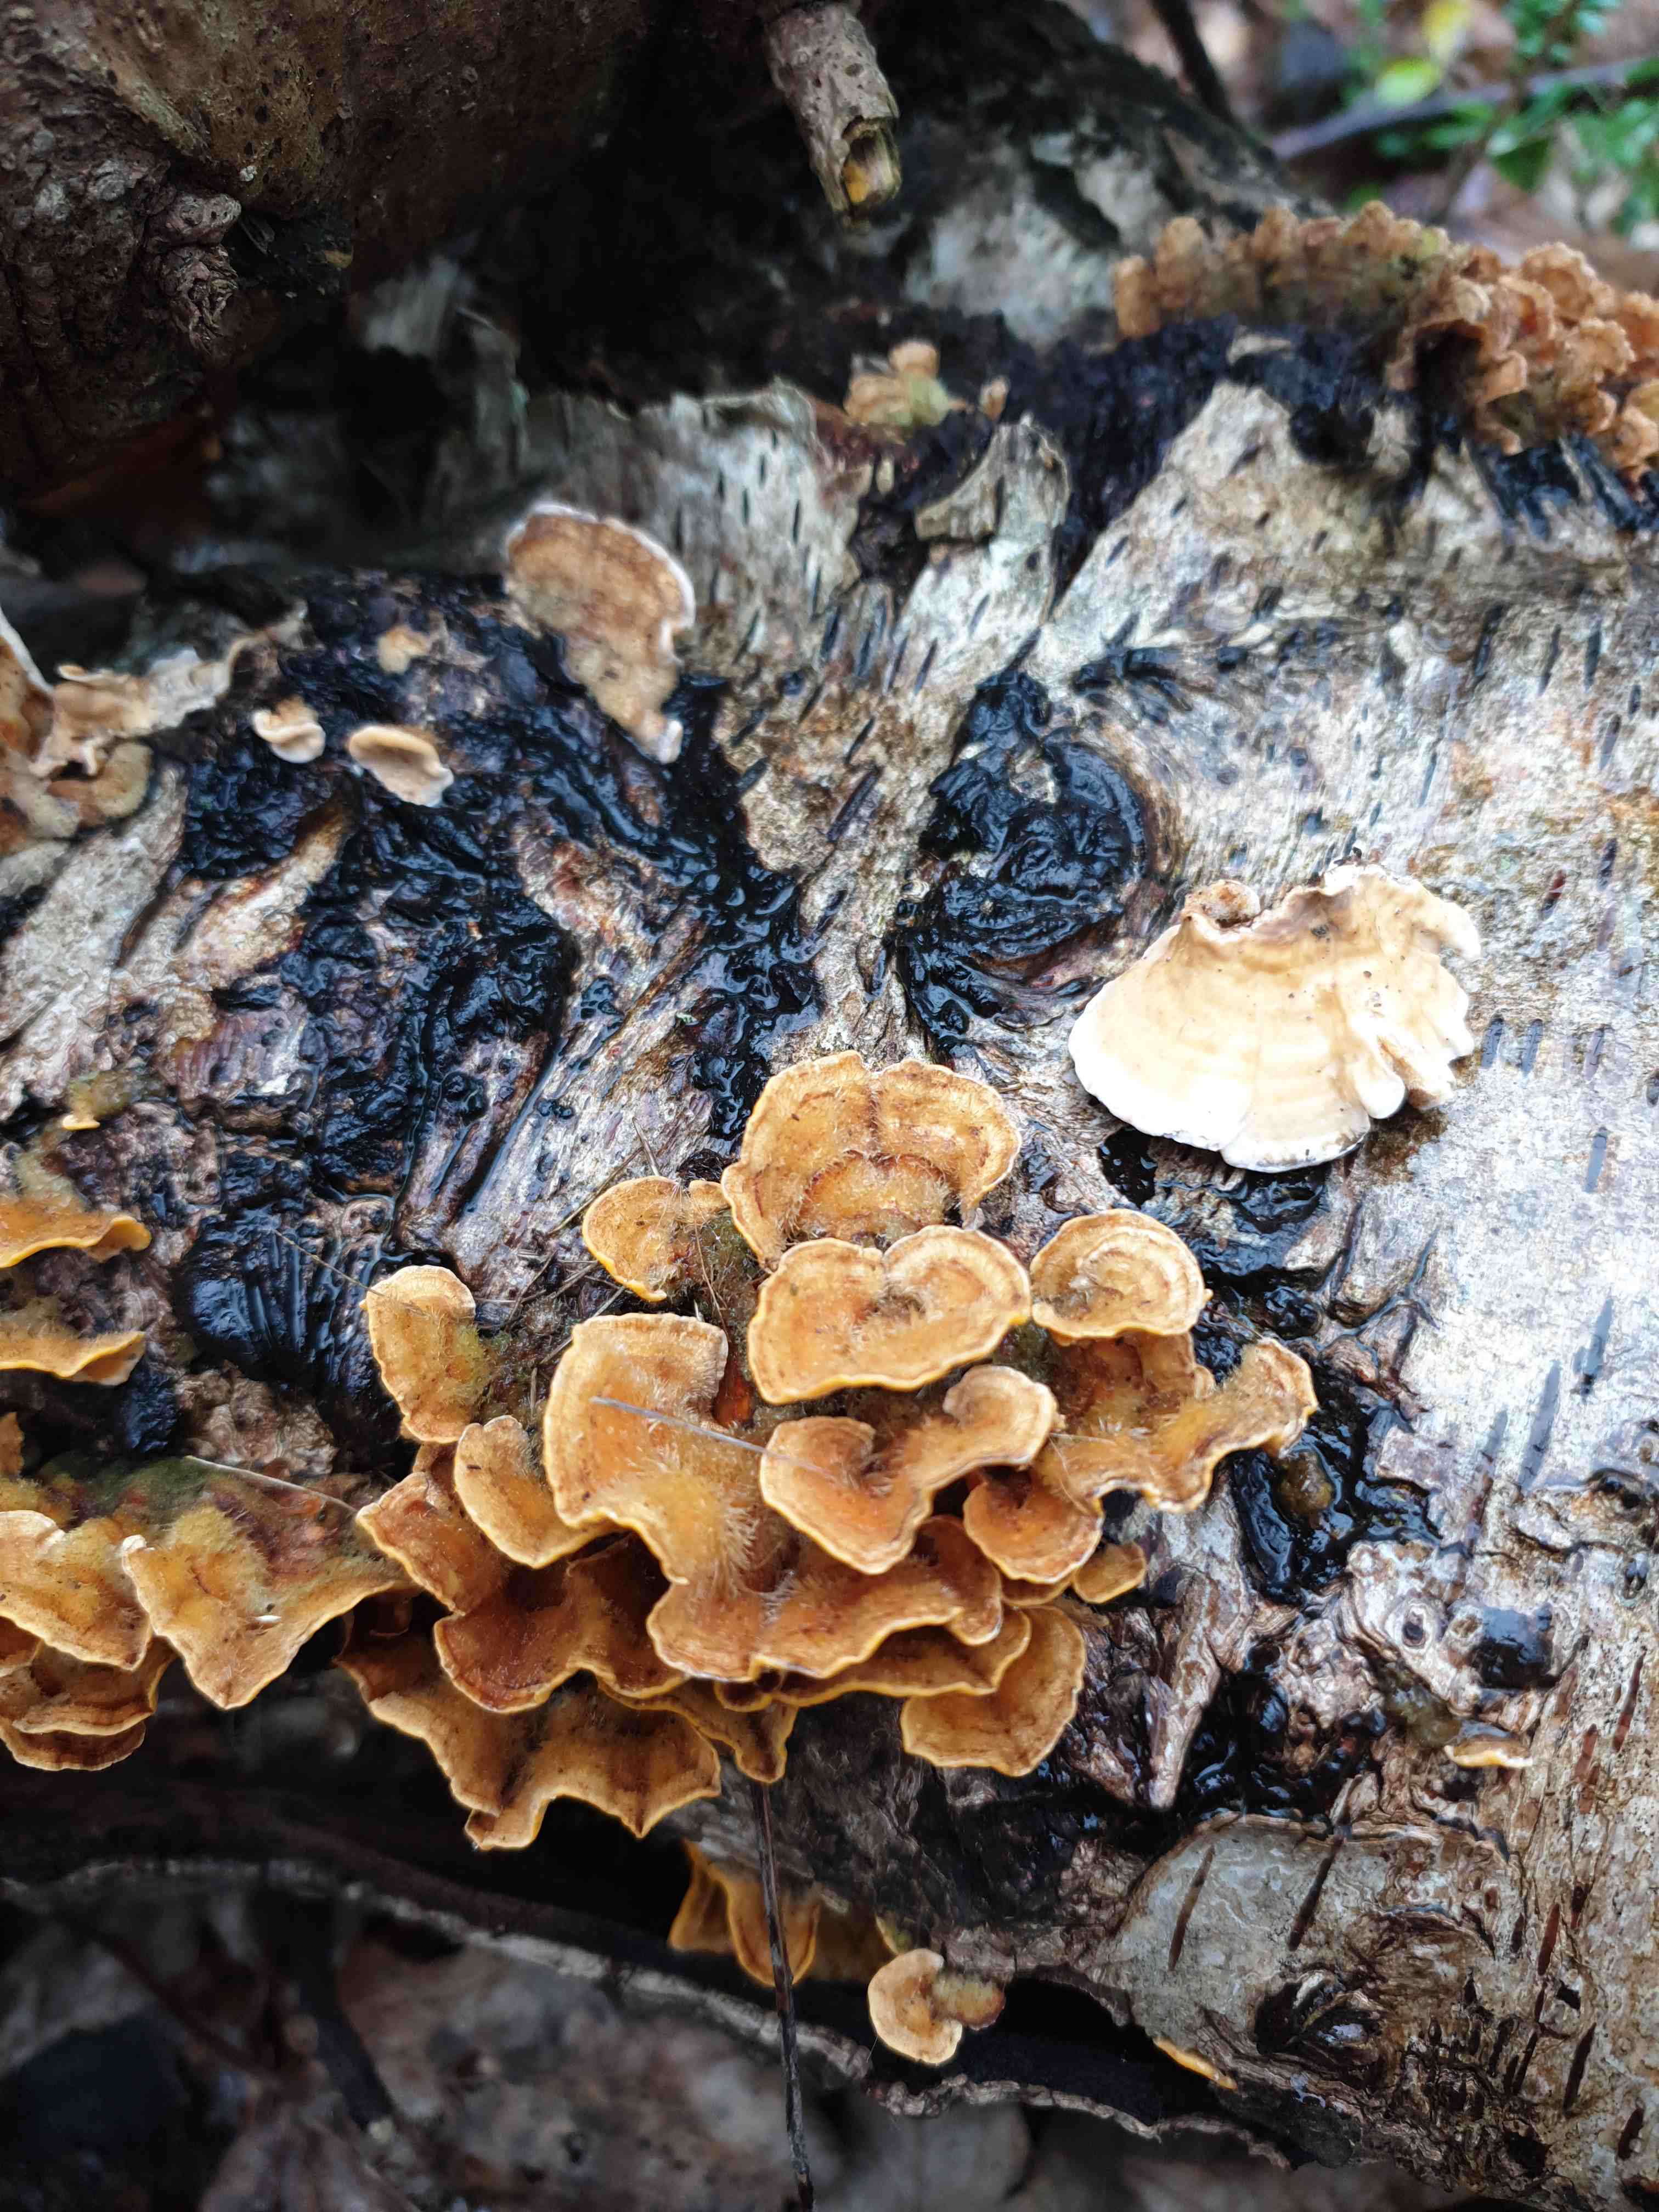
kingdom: Fungi
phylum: Basidiomycota
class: Agaricomycetes
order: Russulales
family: Stereaceae
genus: Stereum
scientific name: Stereum hirsutum
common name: håret lædersvamp
